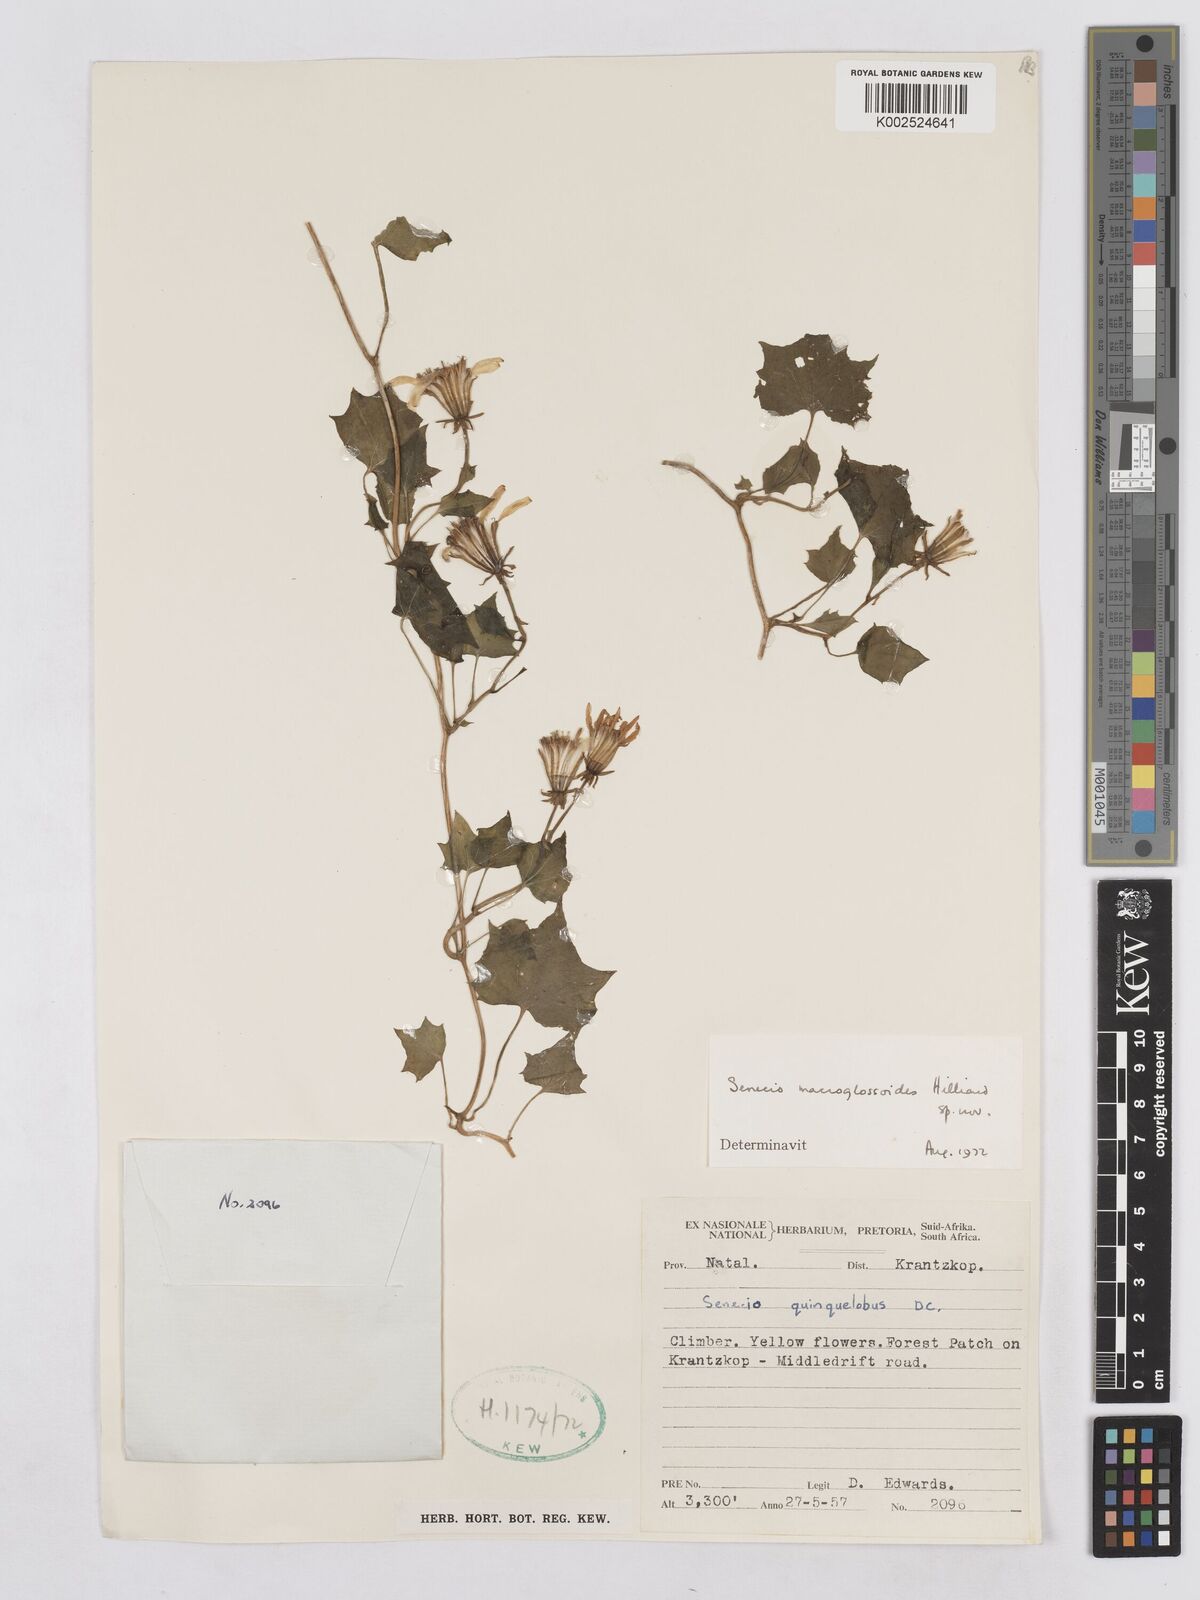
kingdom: Plantae
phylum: Tracheophyta
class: Magnoliopsida
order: Asterales
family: Asteraceae
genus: Senecio
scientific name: Senecio macroglossoides
